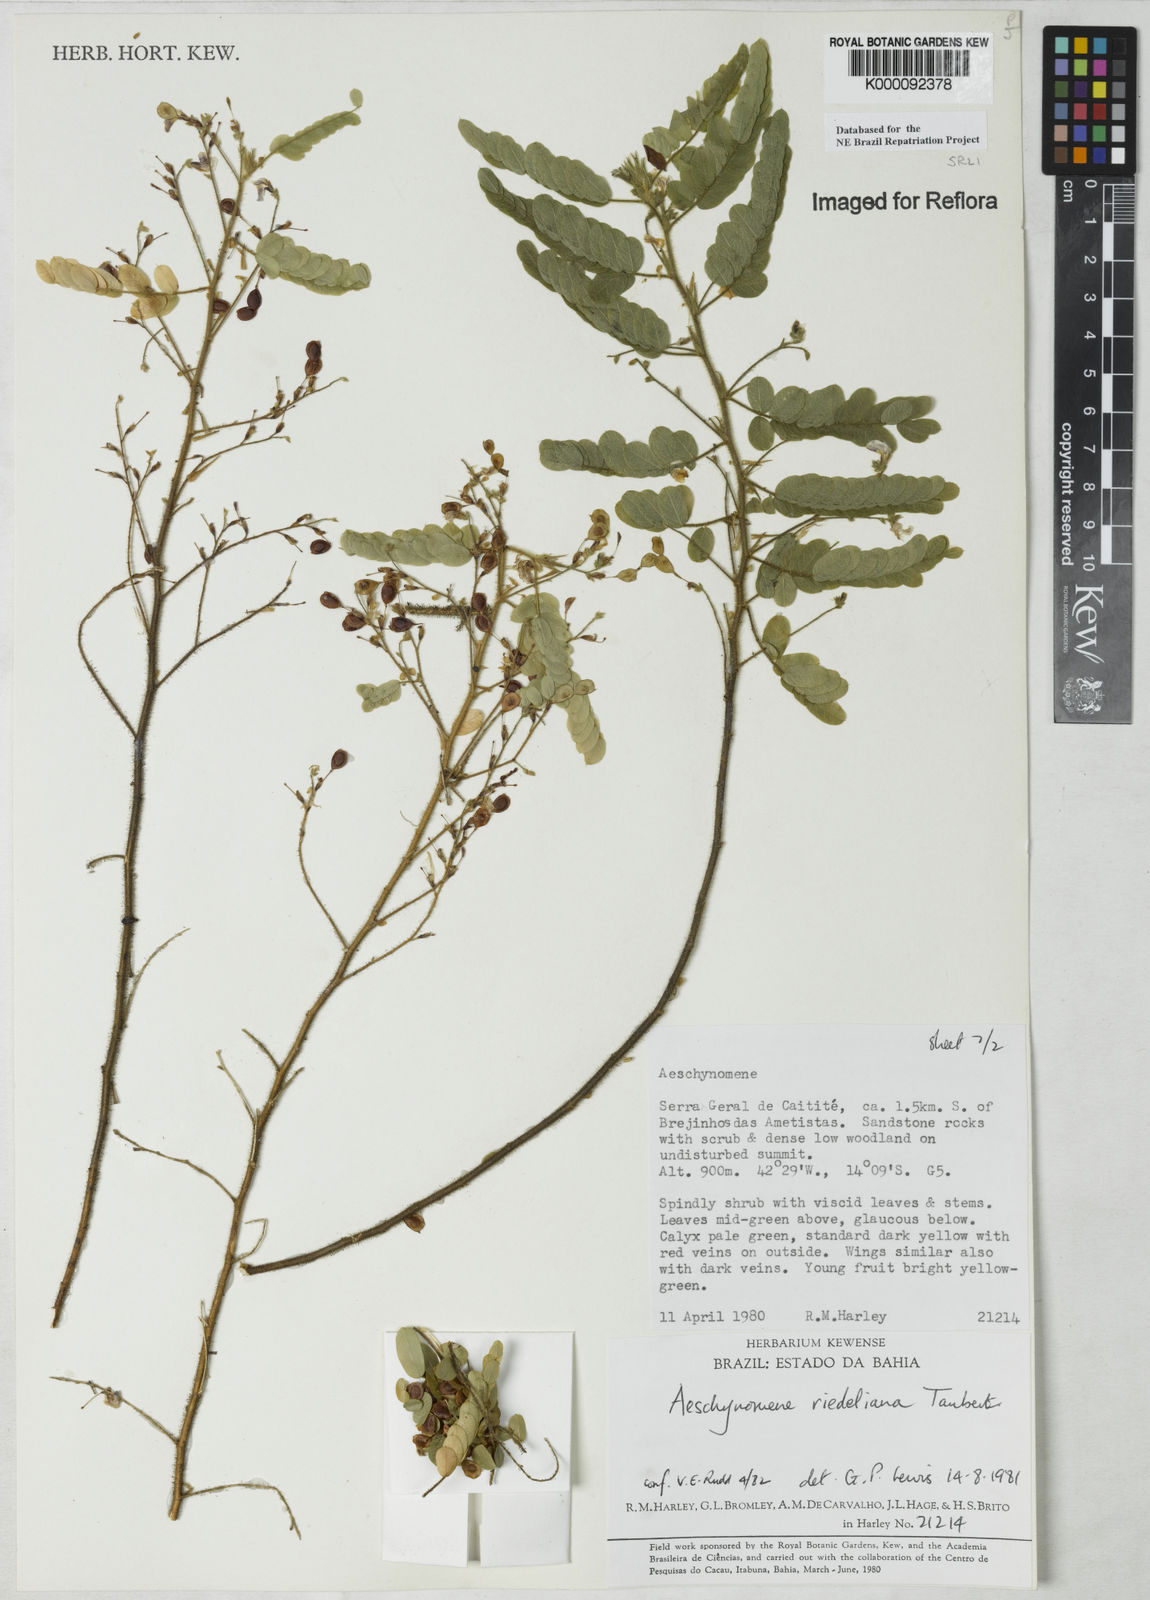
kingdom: Plantae
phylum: Tracheophyta
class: Magnoliopsida
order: Fabales
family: Fabaceae
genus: Ctenodon
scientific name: Ctenodon riedelianus
